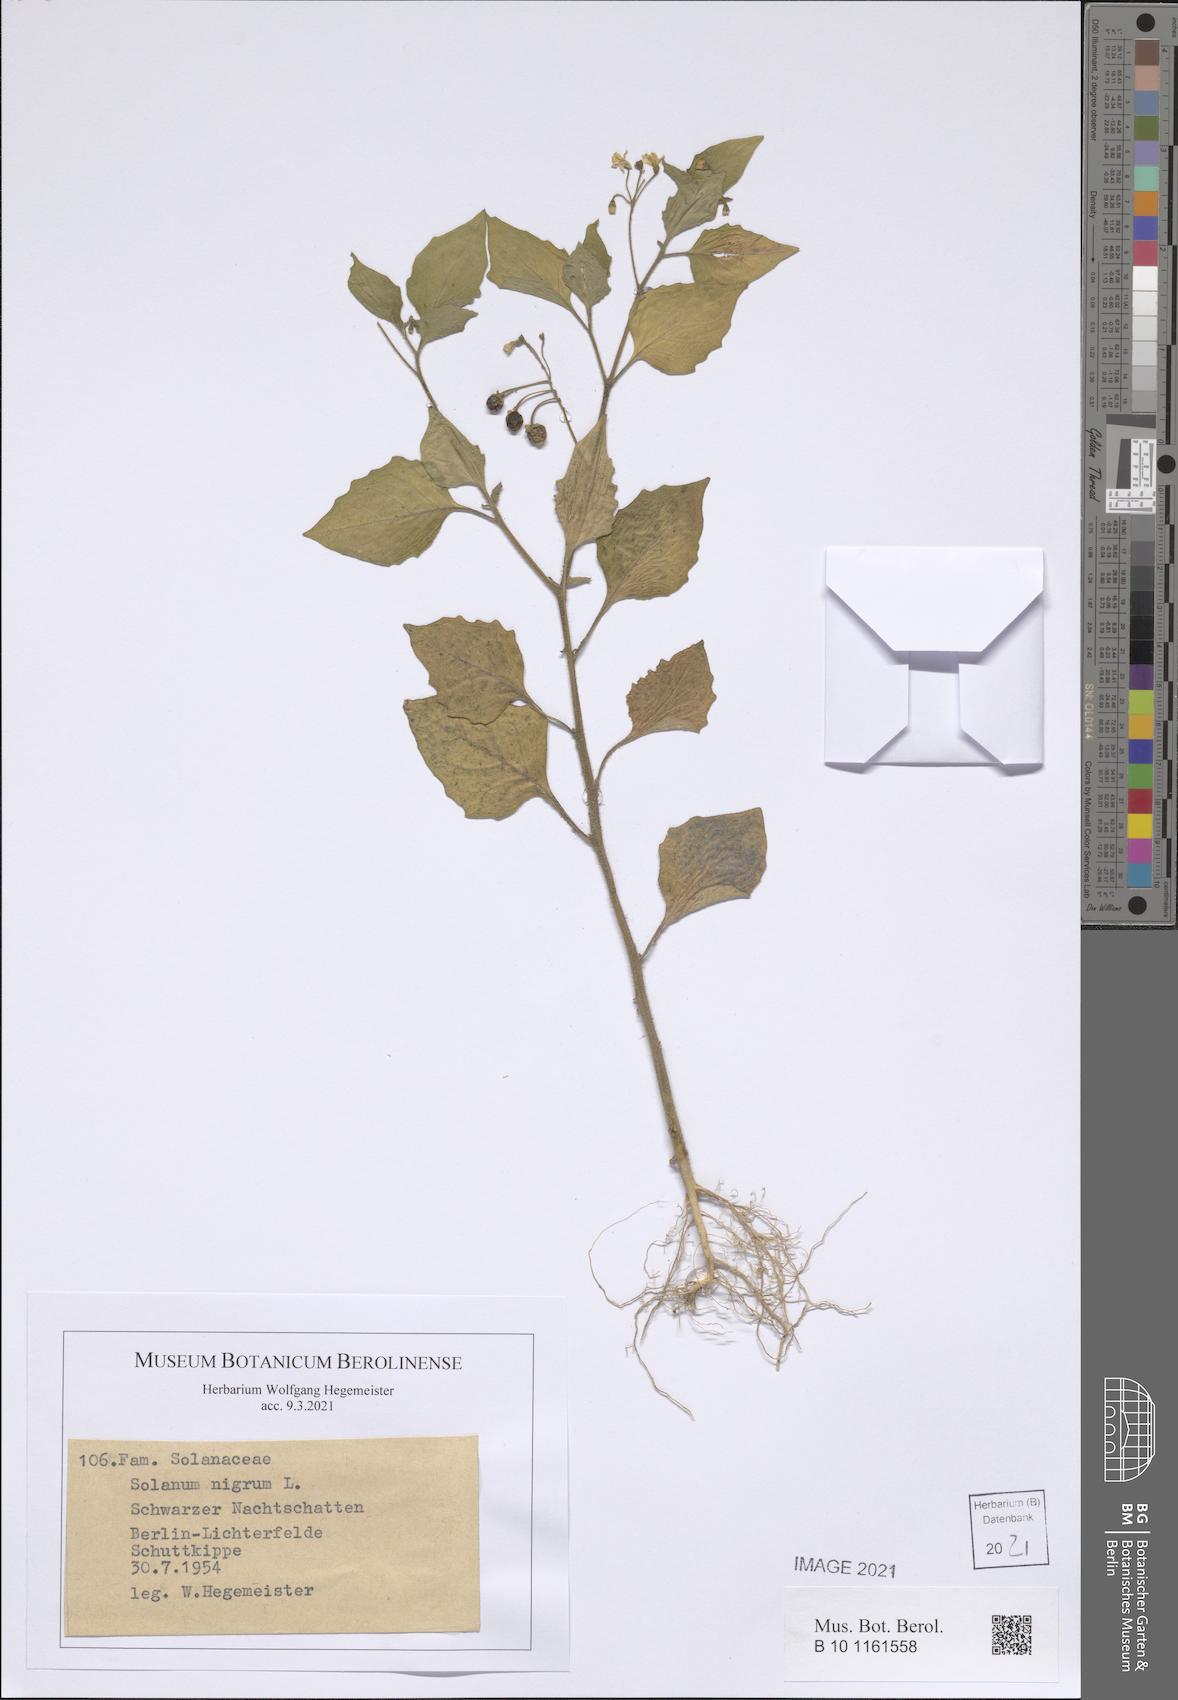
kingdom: Plantae
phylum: Tracheophyta
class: Magnoliopsida
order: Solanales
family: Solanaceae
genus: Solanum
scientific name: Solanum nigrum
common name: Black nightshade
